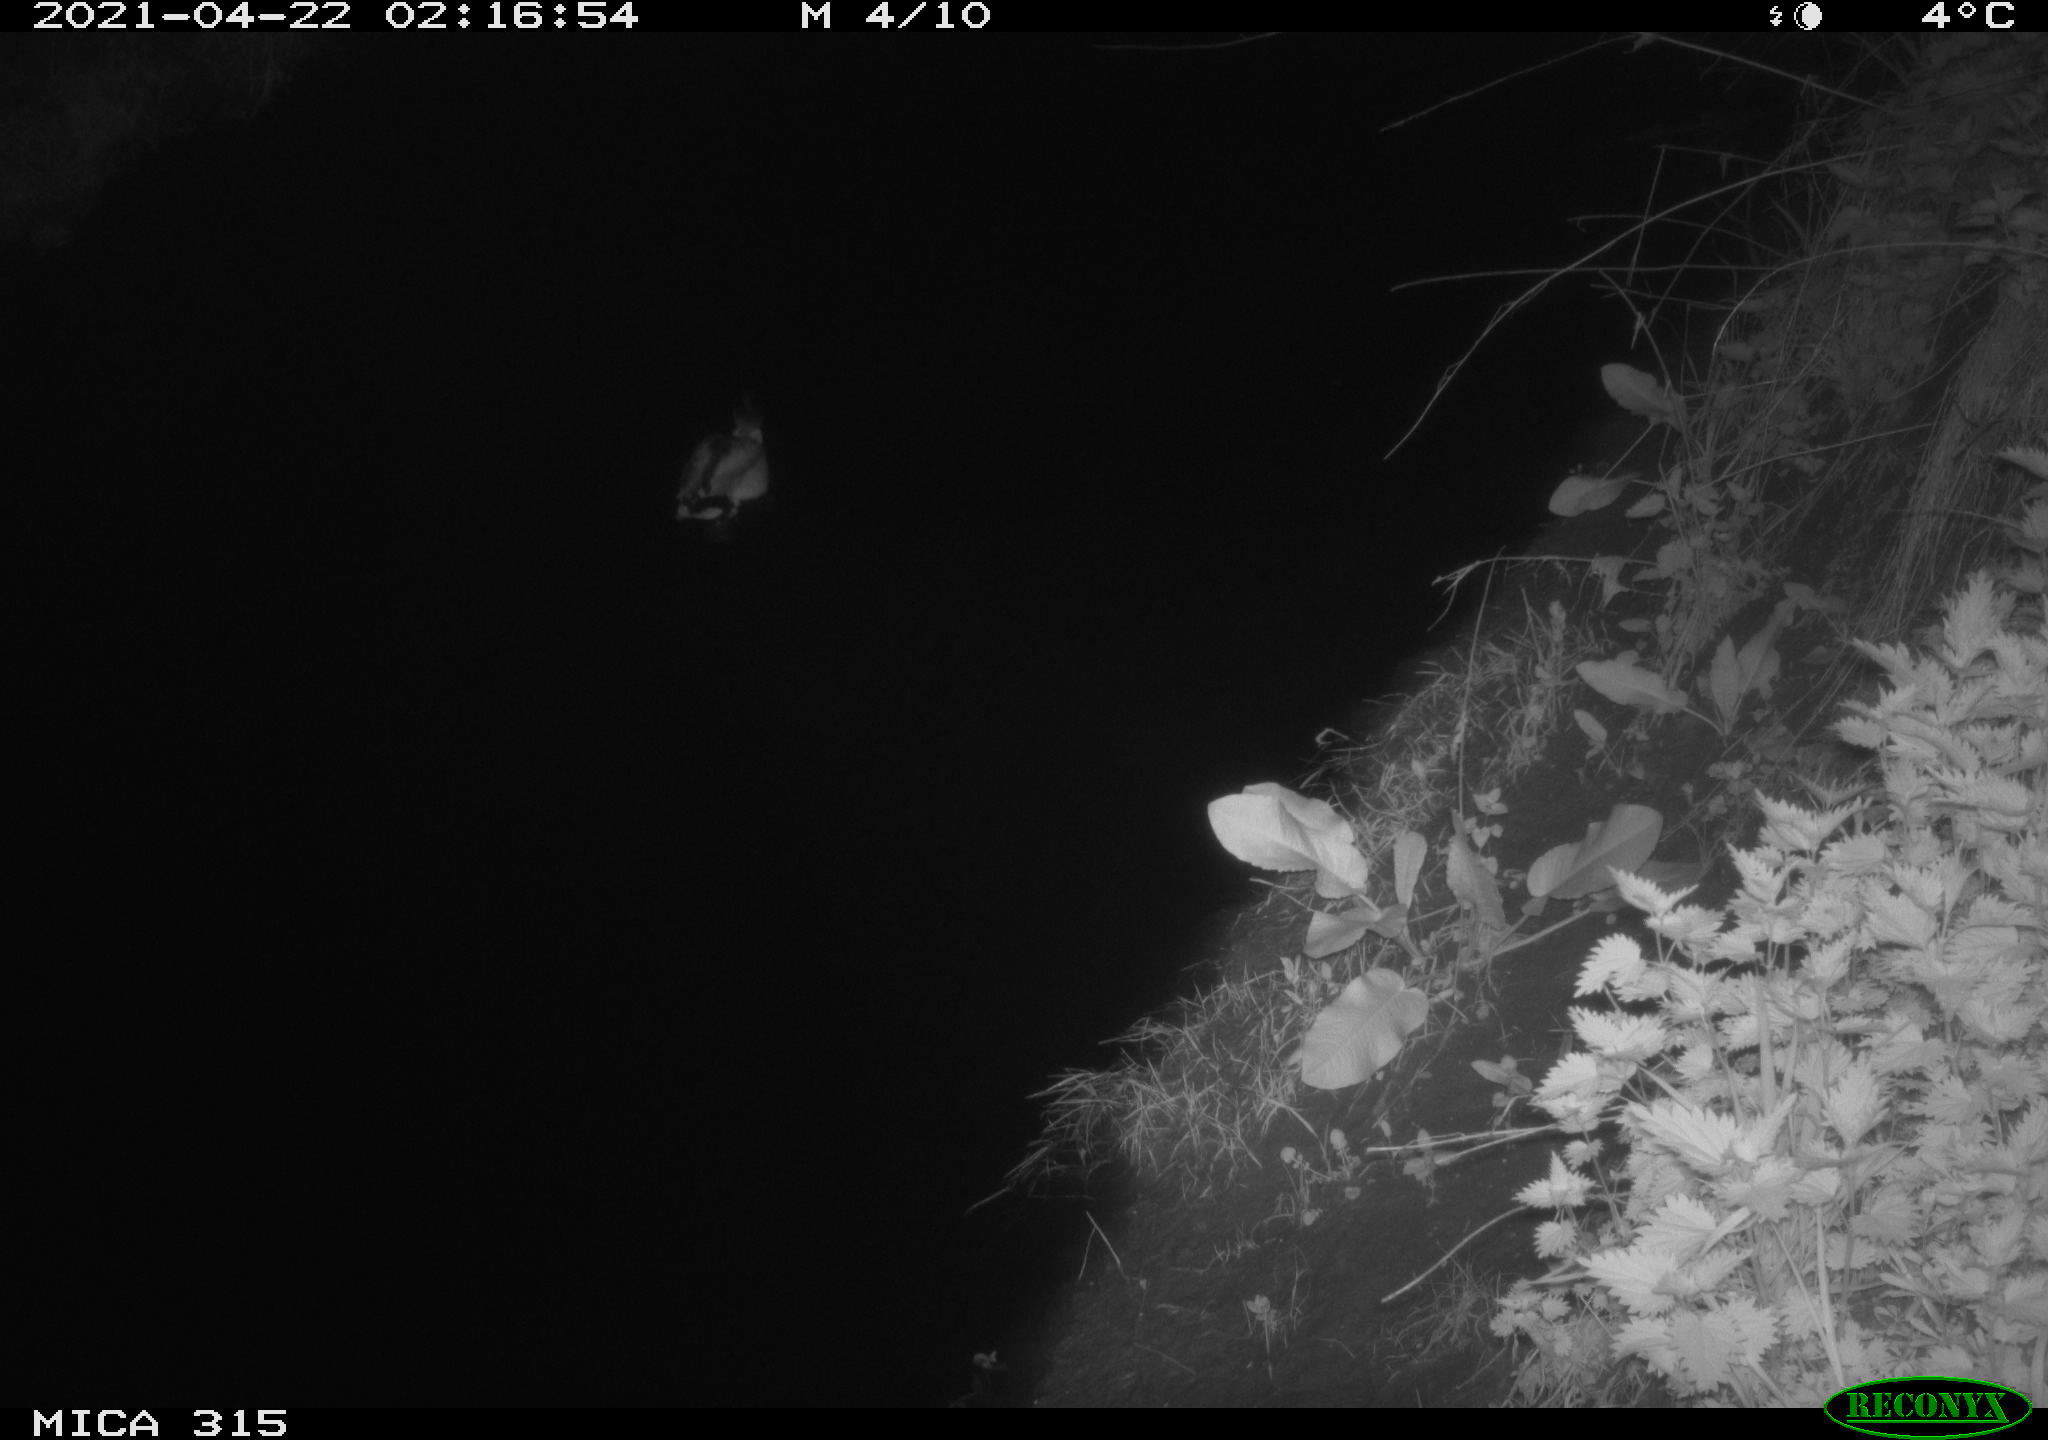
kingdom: Animalia
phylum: Chordata
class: Aves
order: Anseriformes
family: Anatidae
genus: Anas
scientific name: Anas
